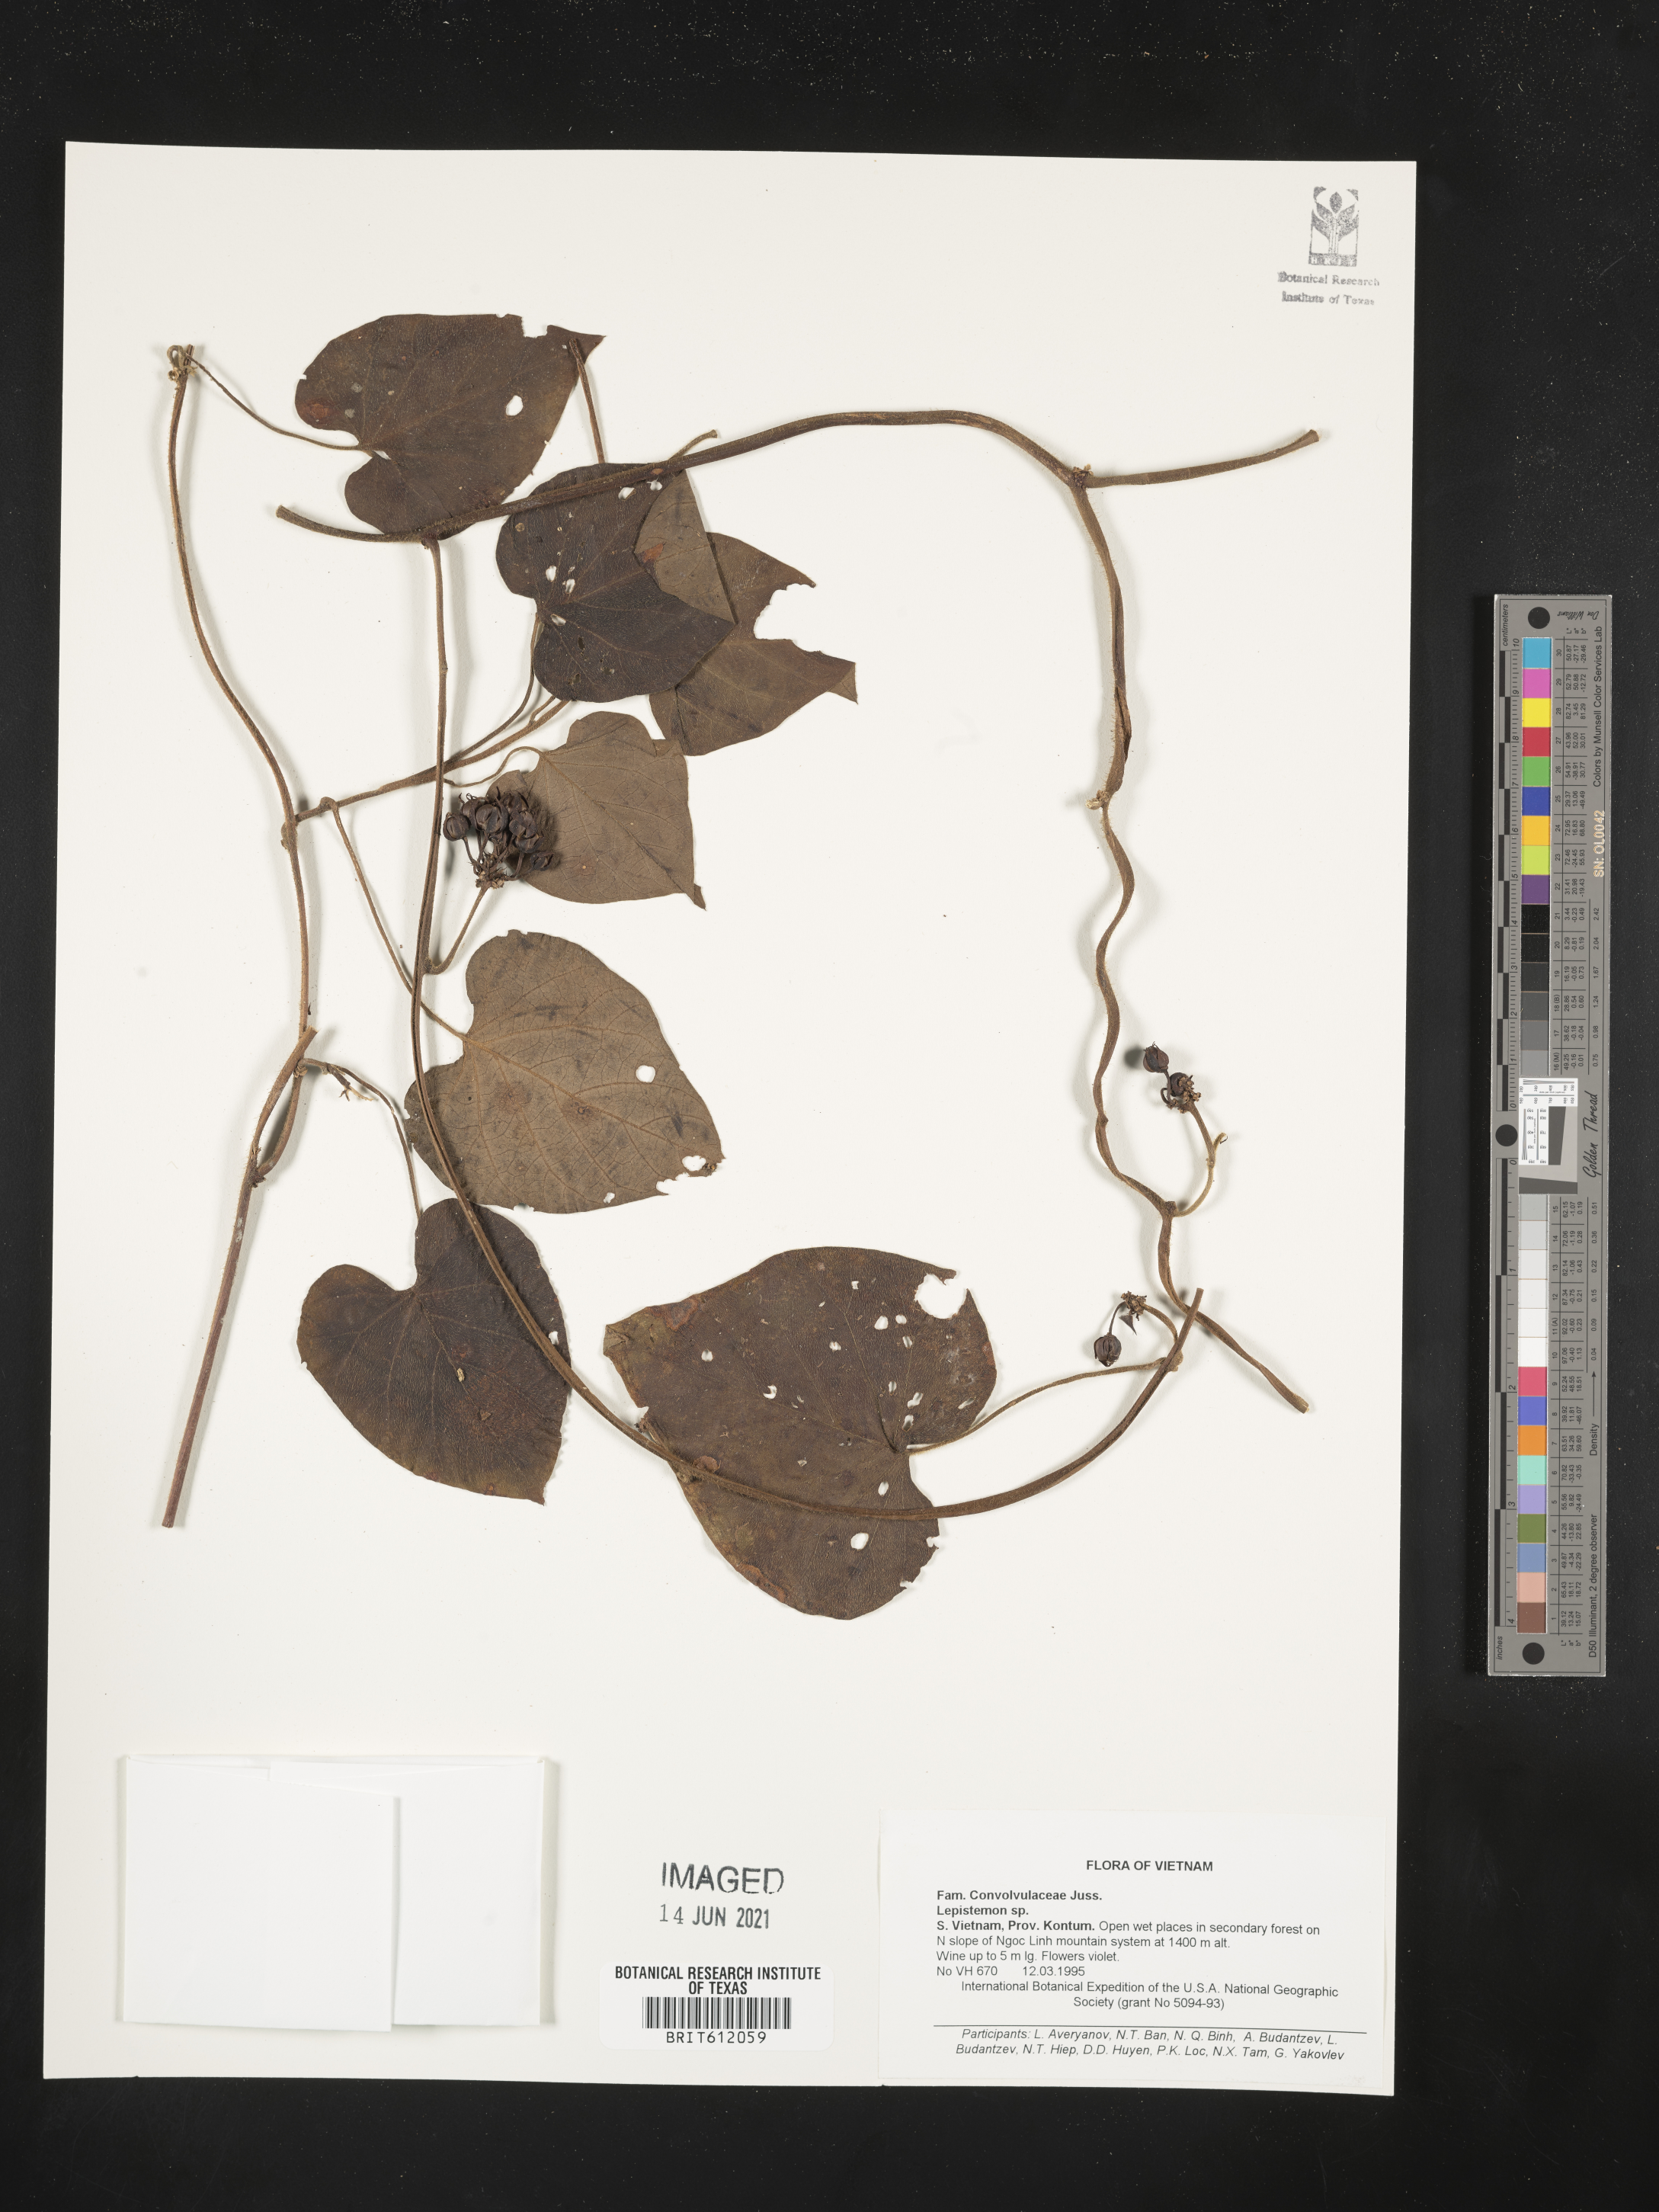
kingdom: Plantae
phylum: Tracheophyta
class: Magnoliopsida
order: Solanales
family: Convolvulaceae
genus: Lepistemon
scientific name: Lepistemon
